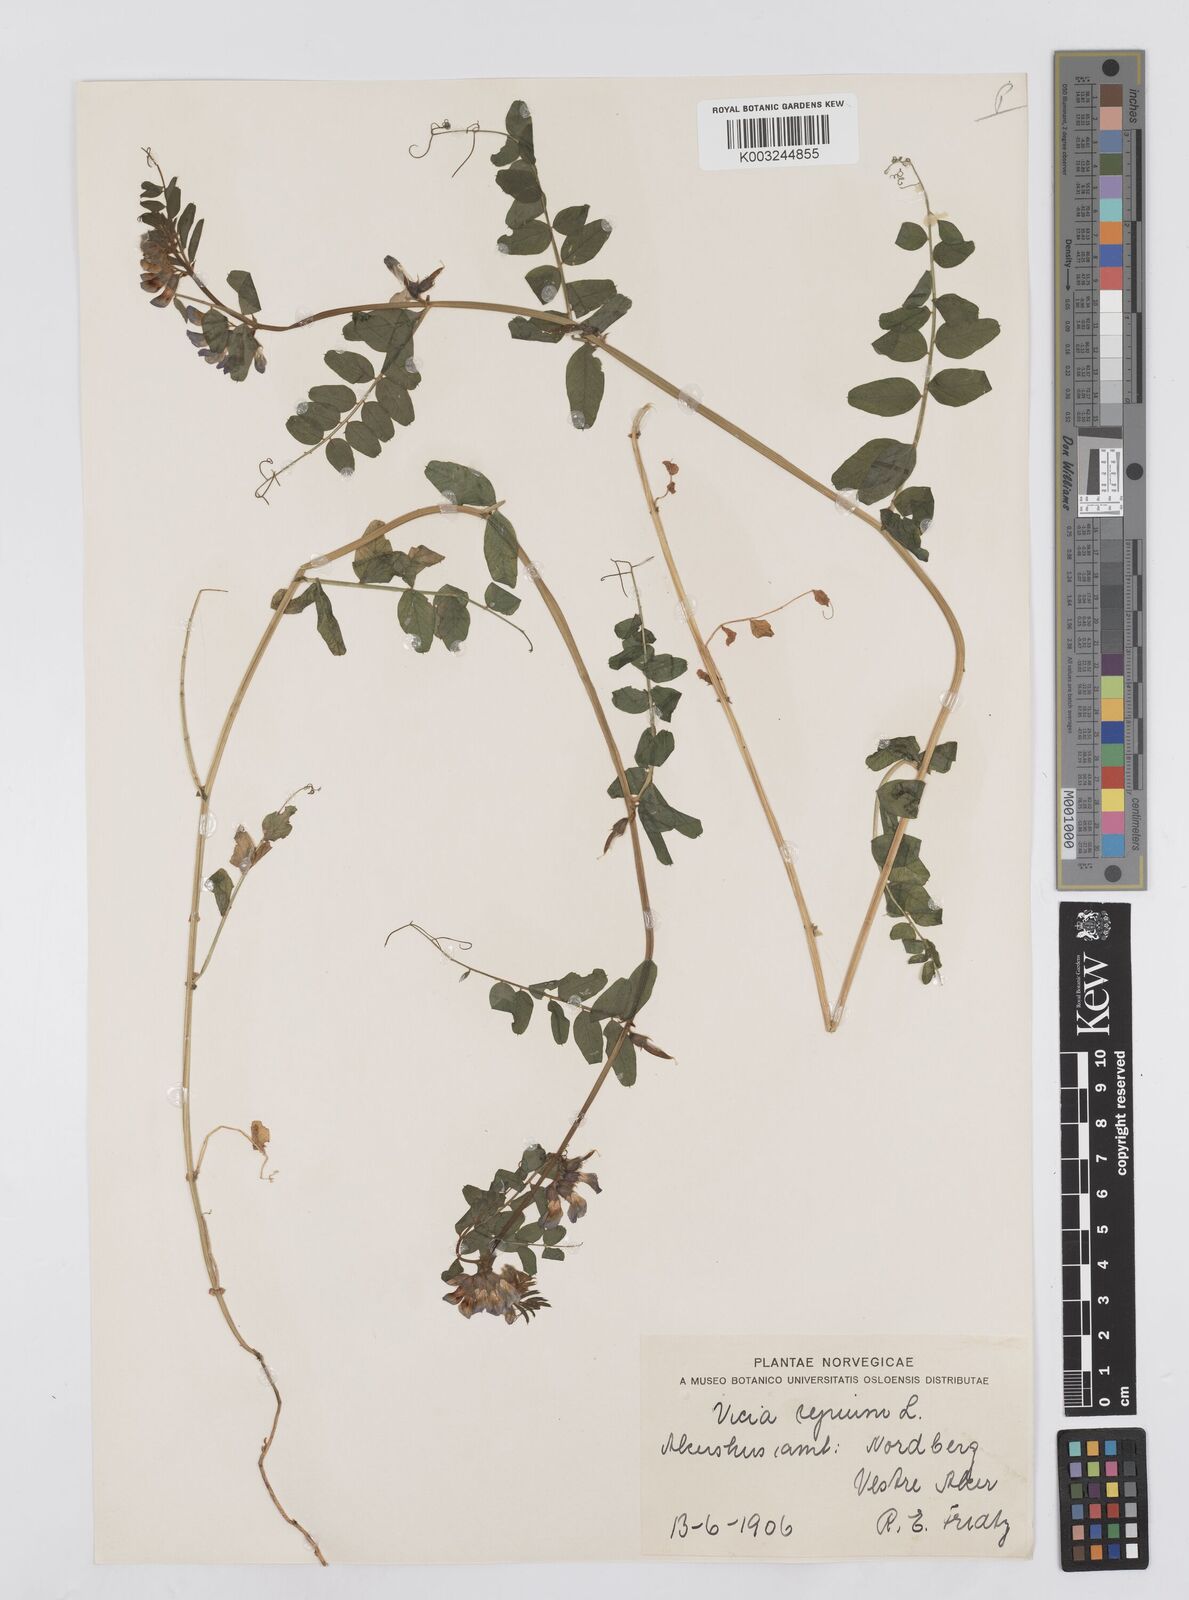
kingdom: Plantae
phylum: Tracheophyta
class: Magnoliopsida
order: Fabales
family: Fabaceae
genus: Vicia
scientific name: Vicia sepium
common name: Bush vetch
